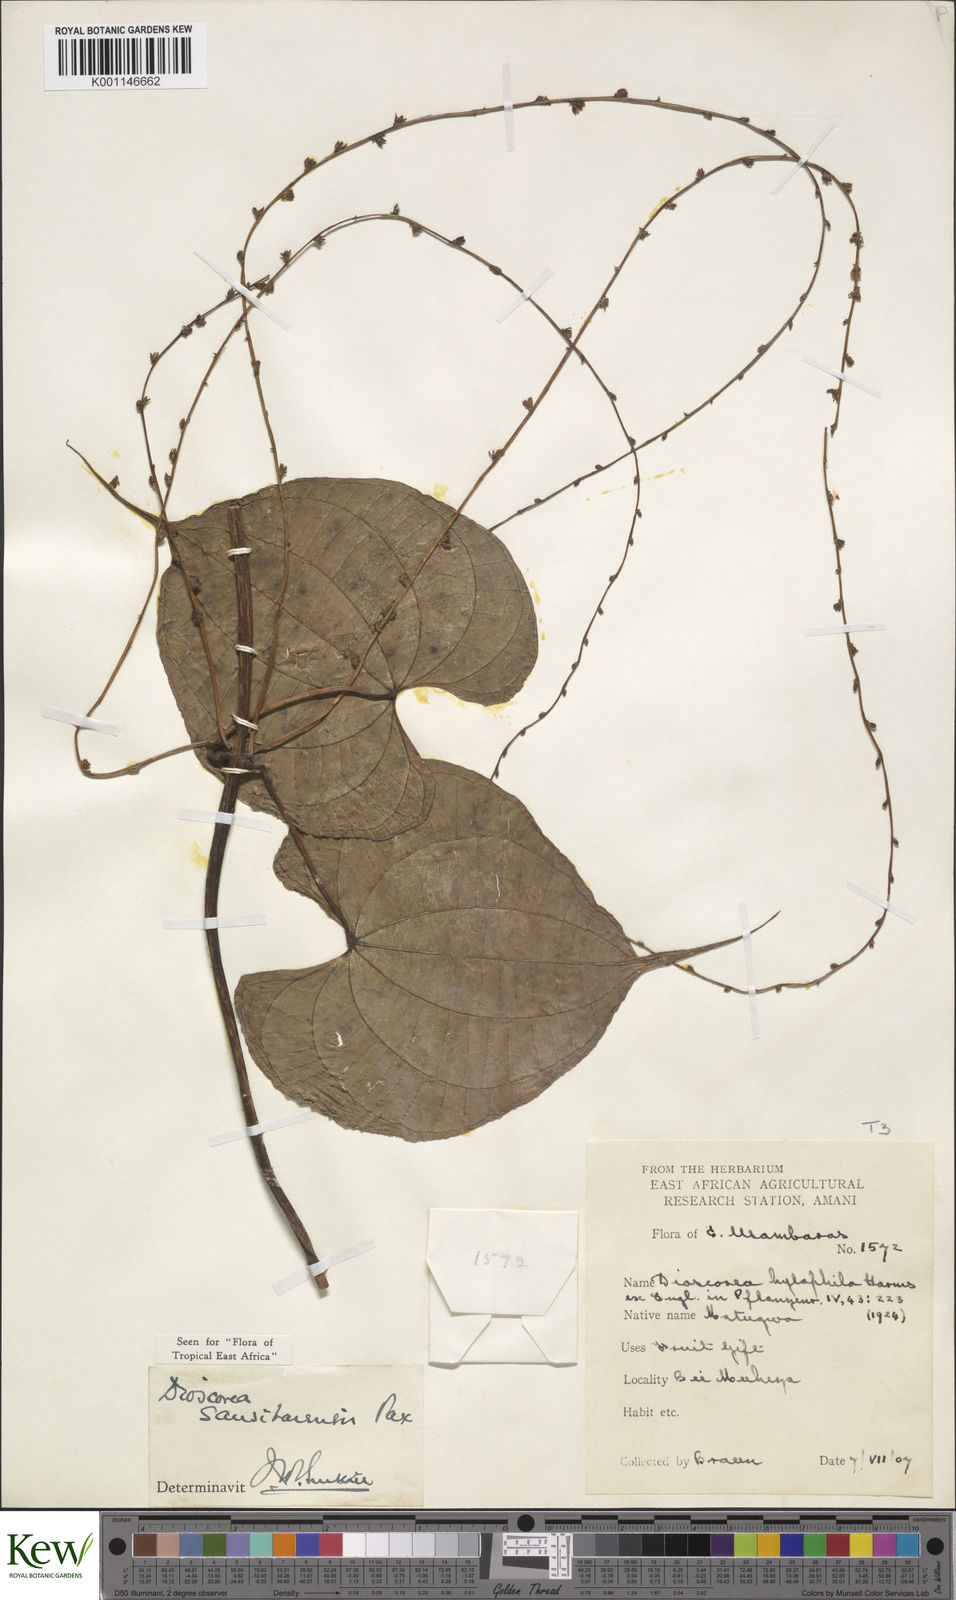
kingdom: Plantae
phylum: Tracheophyta
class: Liliopsida
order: Dioscoreales
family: Dioscoreaceae
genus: Dioscorea
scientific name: Dioscorea sansibarensis
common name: Zanzibar yam
